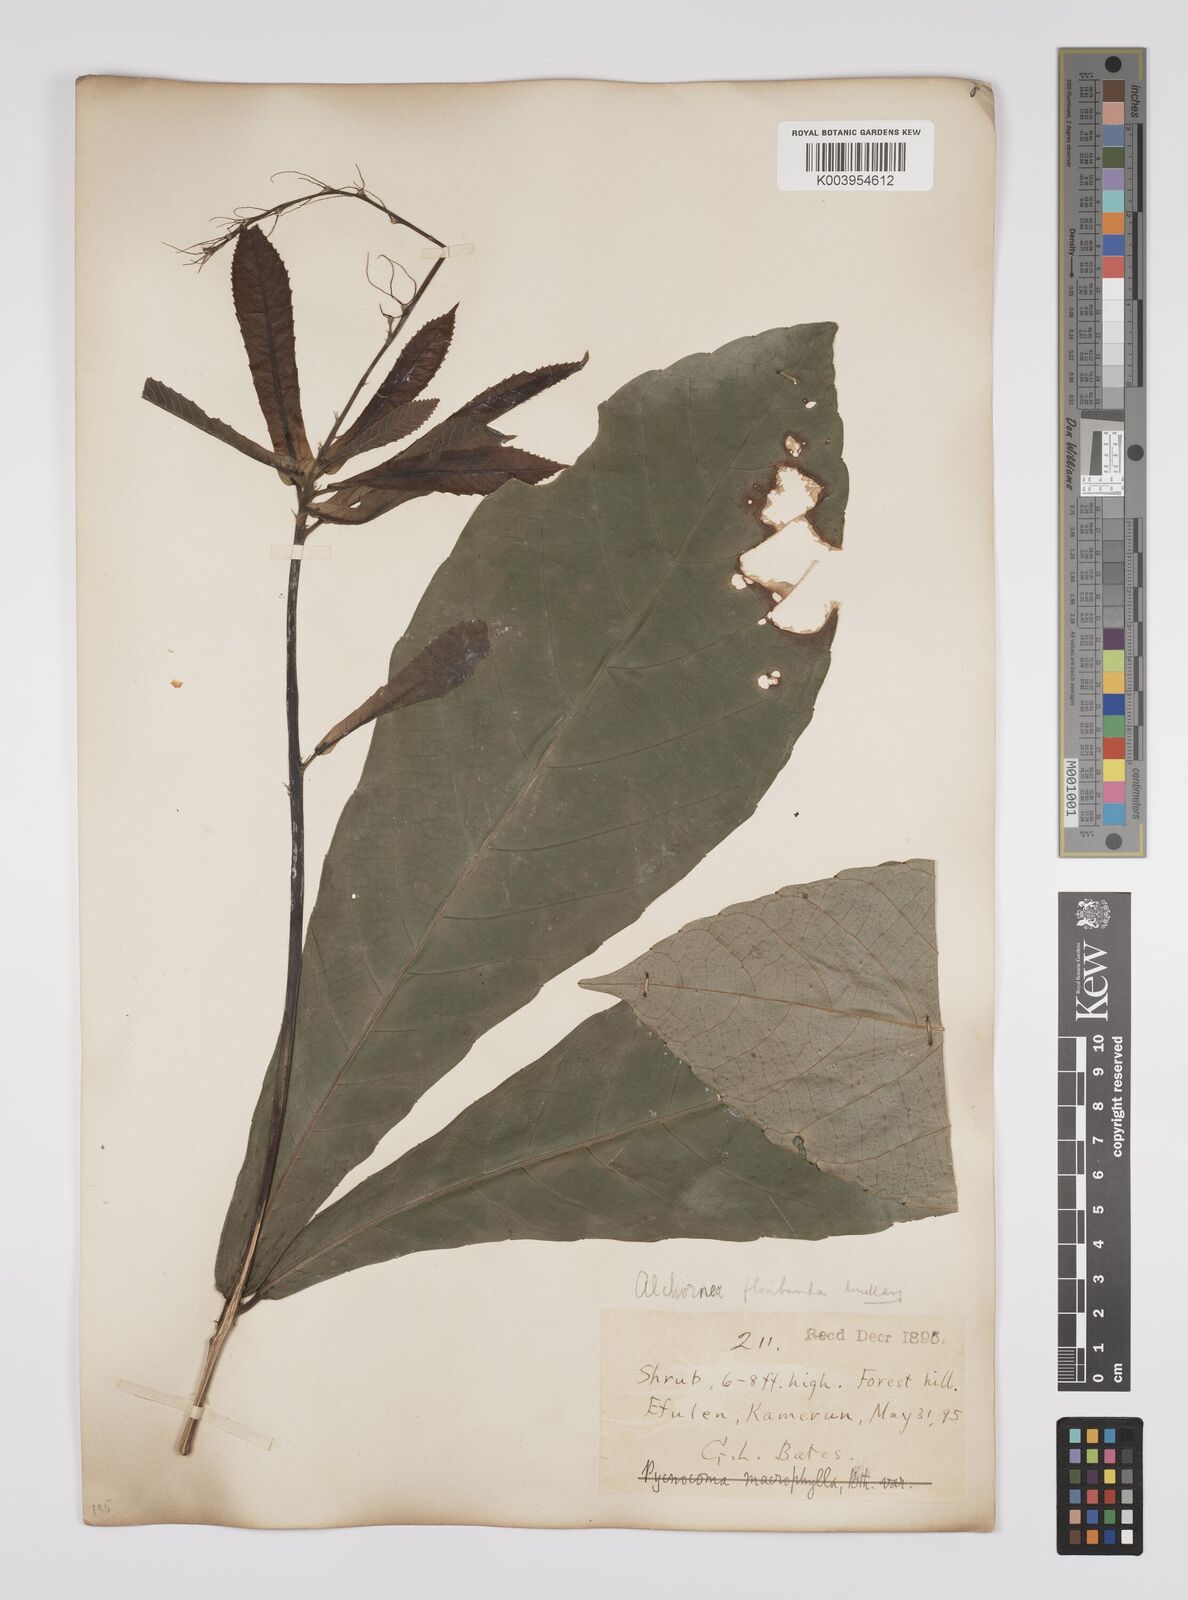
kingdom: Plantae
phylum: Tracheophyta
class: Magnoliopsida
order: Malpighiales
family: Euphorbiaceae
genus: Alchornea
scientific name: Alchornea floribunda
